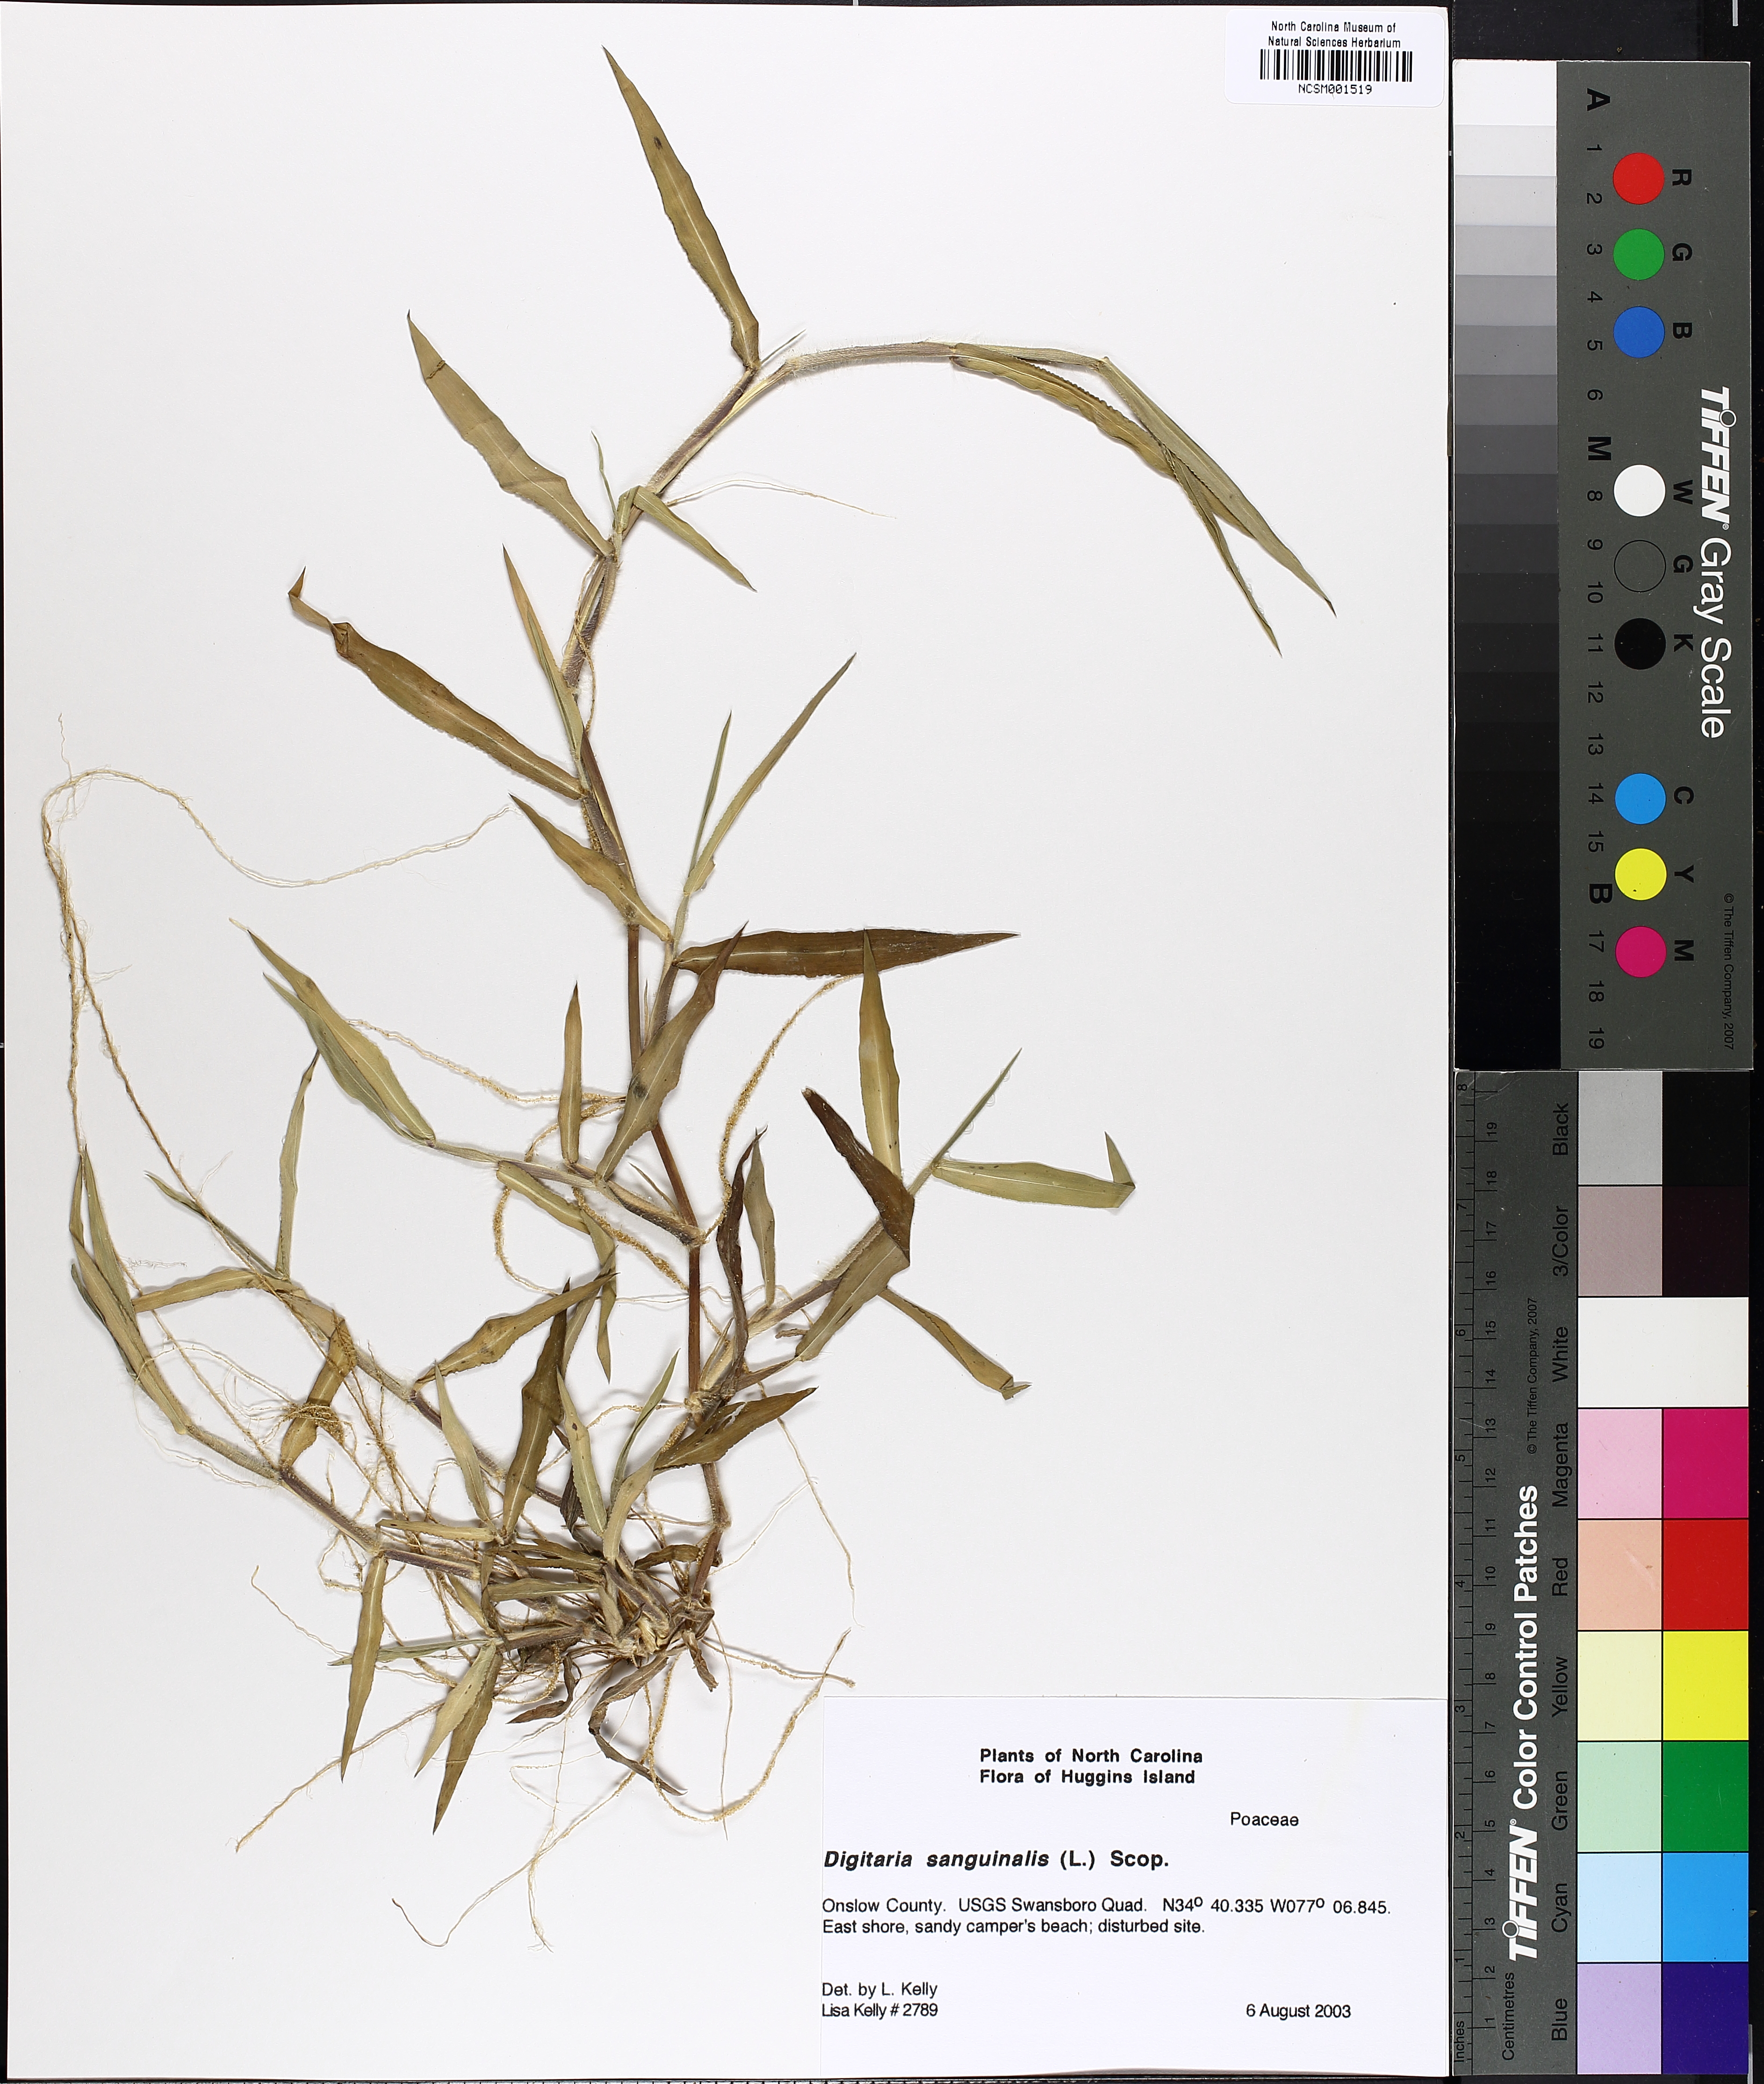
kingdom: Plantae
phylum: Tracheophyta
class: Liliopsida
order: Poales
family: Poaceae
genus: Digitaria
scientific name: Digitaria sanguinalis
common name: Hairy crabgrass
